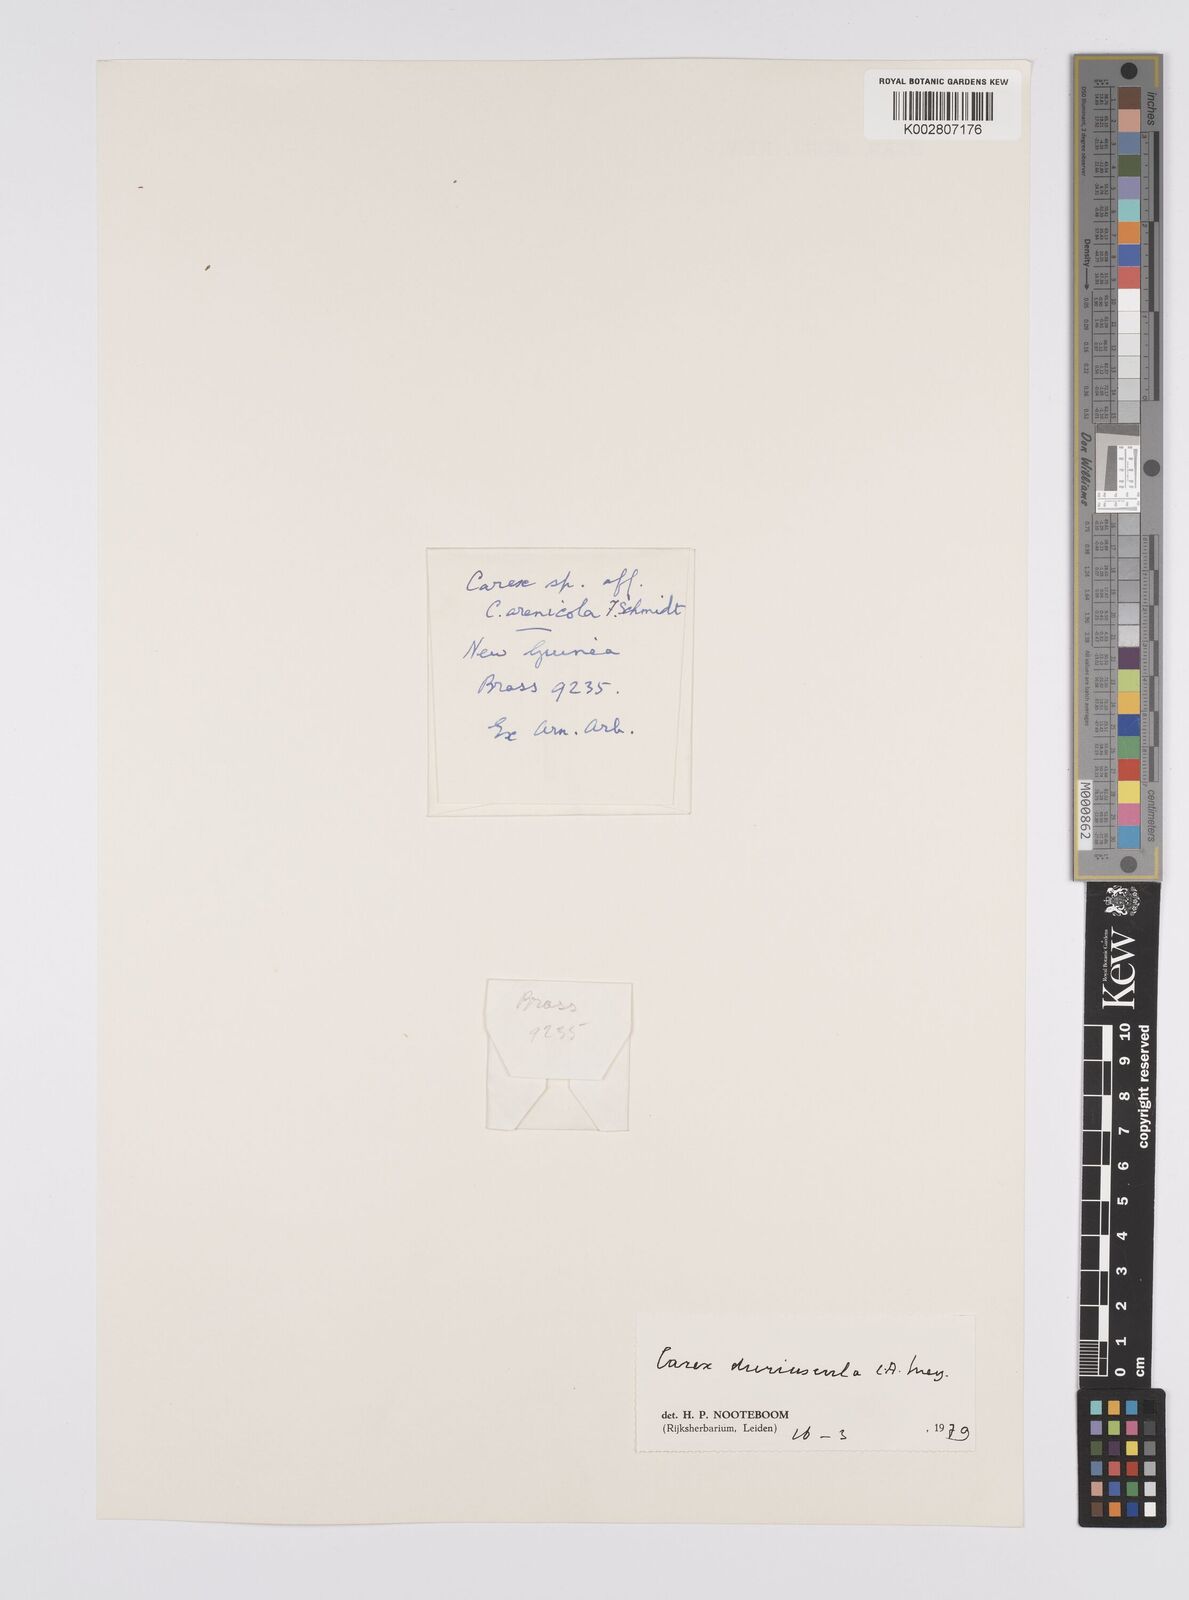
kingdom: Plantae
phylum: Tracheophyta
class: Liliopsida
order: Poales
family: Cyperaceae
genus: Carex
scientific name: Carex duriuscula
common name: Involute-leaved sedge
